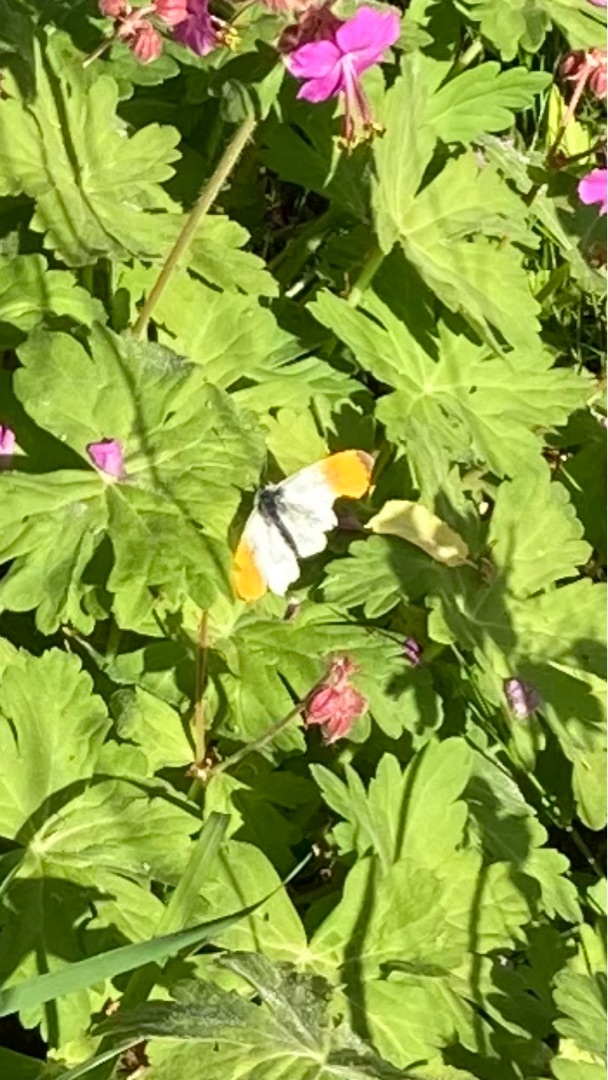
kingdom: Animalia
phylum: Arthropoda
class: Insecta
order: Lepidoptera
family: Pieridae
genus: Anthocharis
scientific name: Anthocharis cardamines
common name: Aurora
